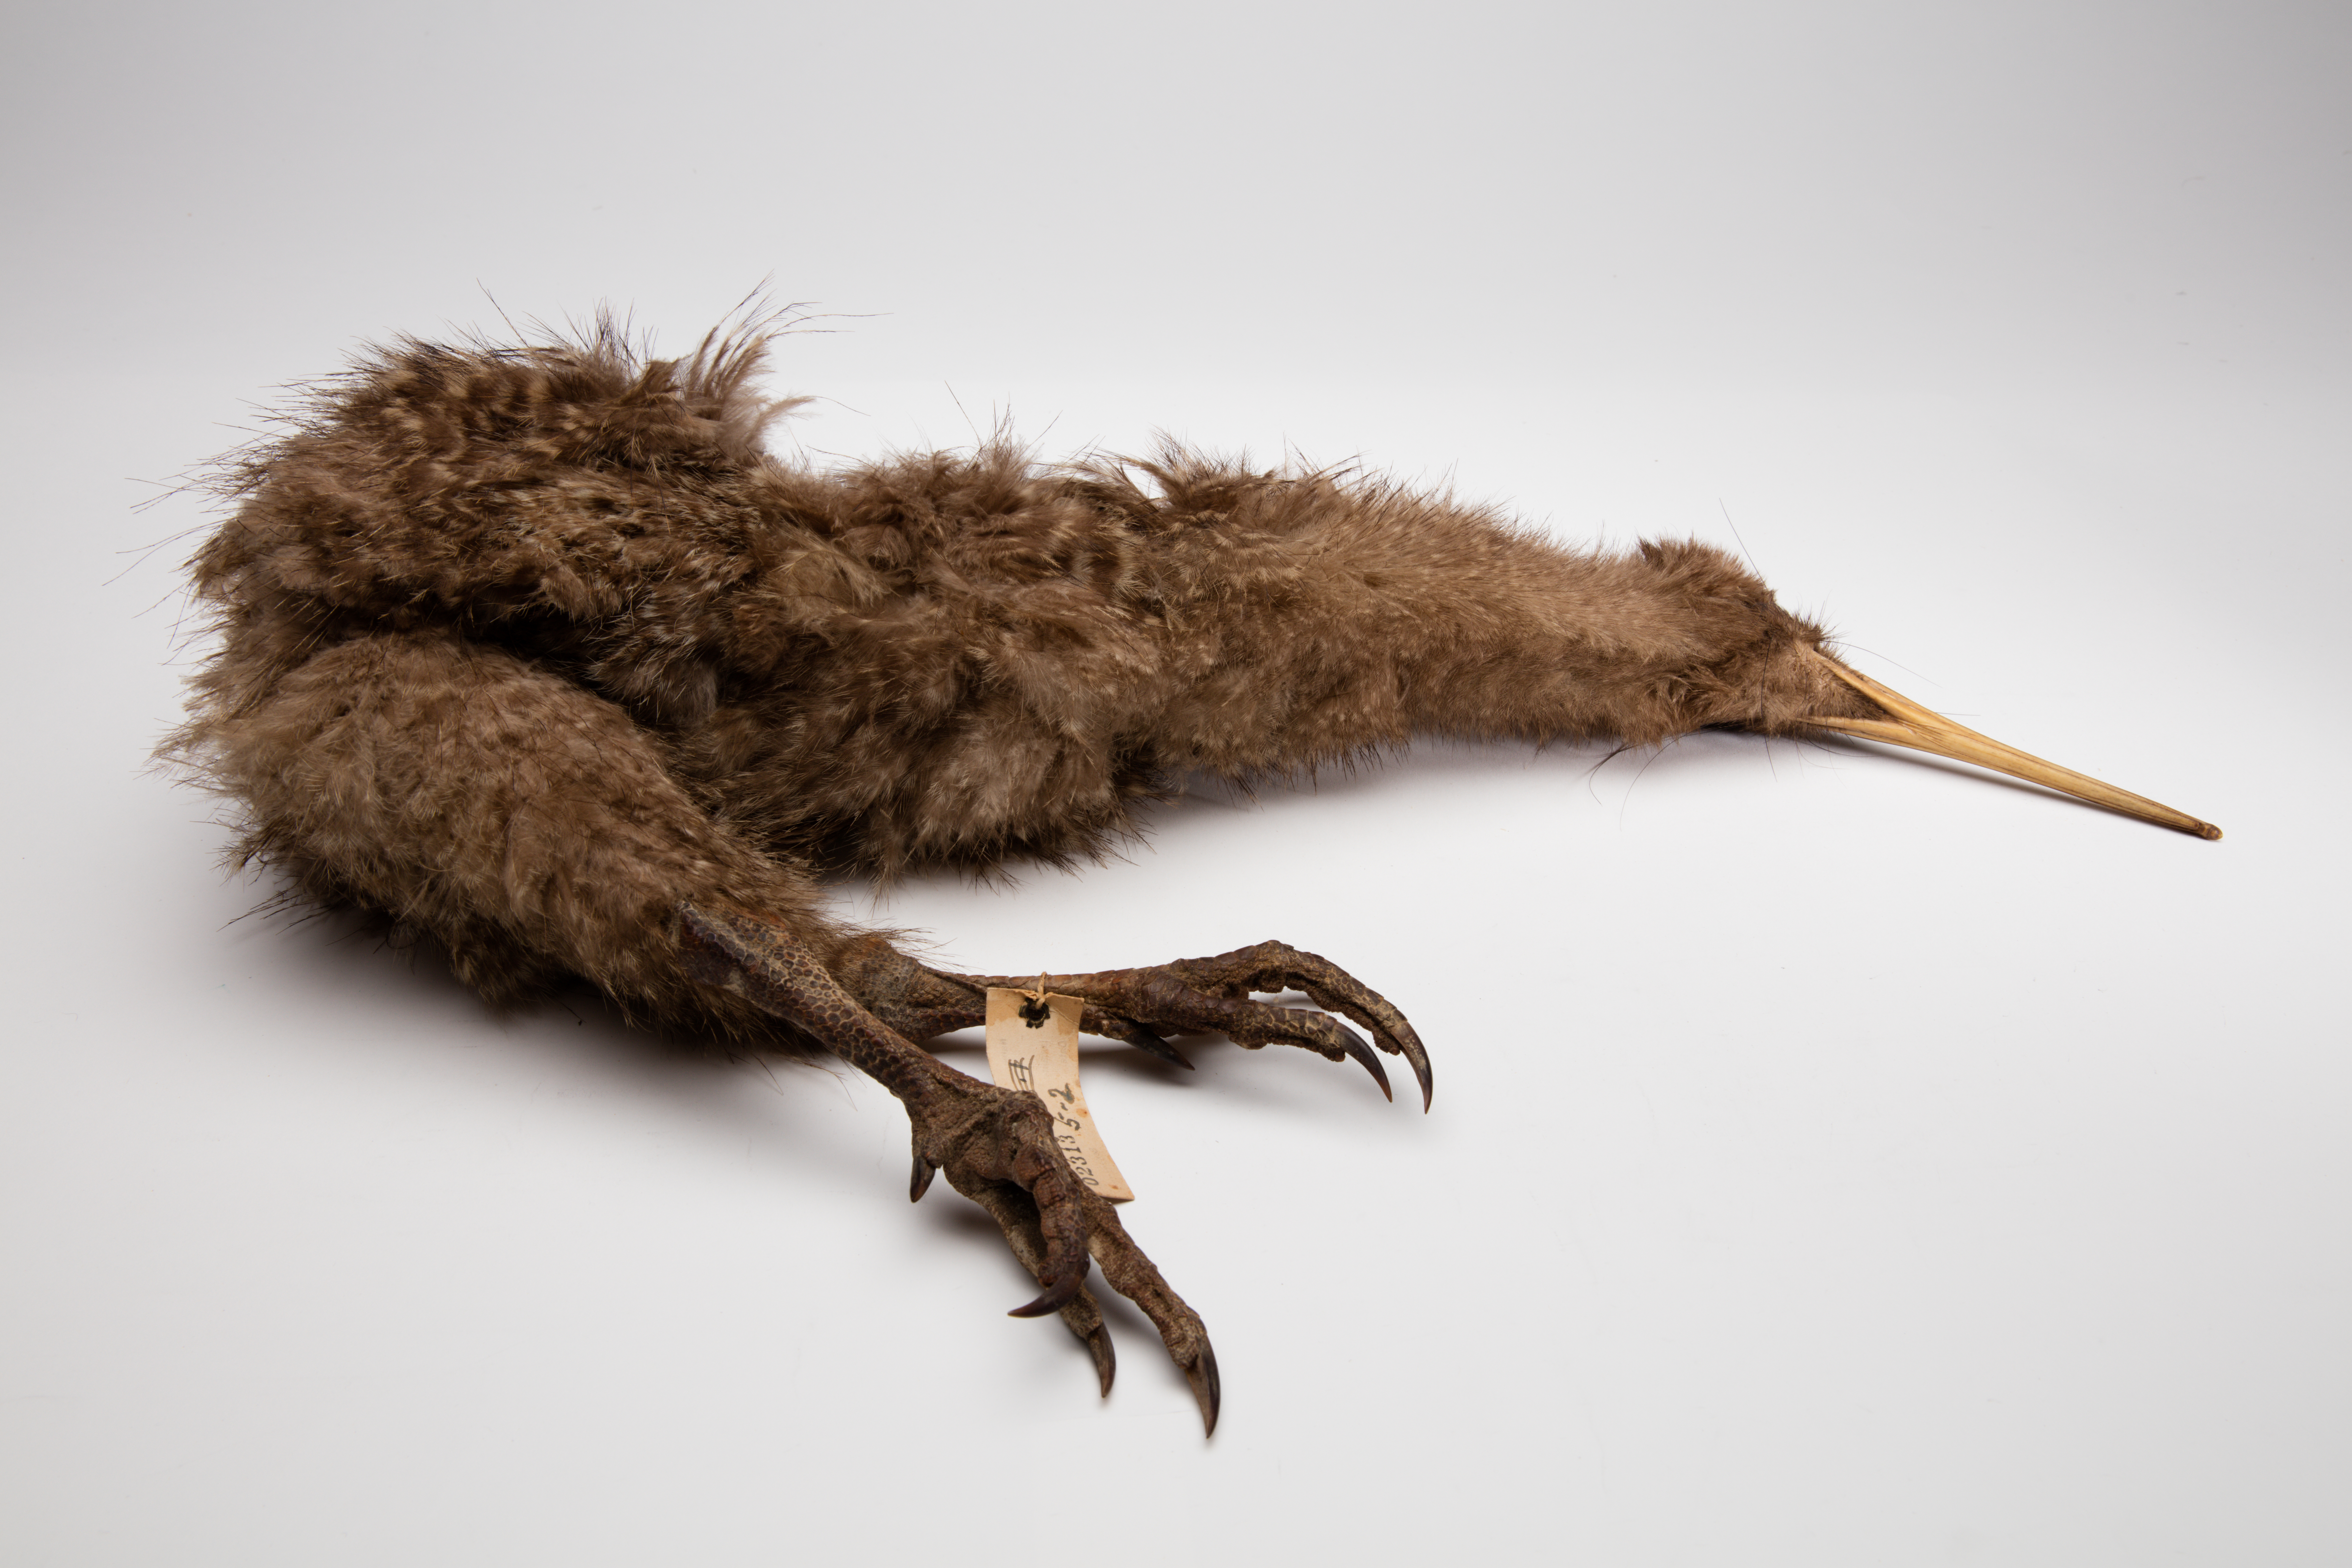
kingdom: Animalia
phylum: Chordata
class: Aves
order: Apterygiformes
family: Apterygidae
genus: Apteryx
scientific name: Apteryx
